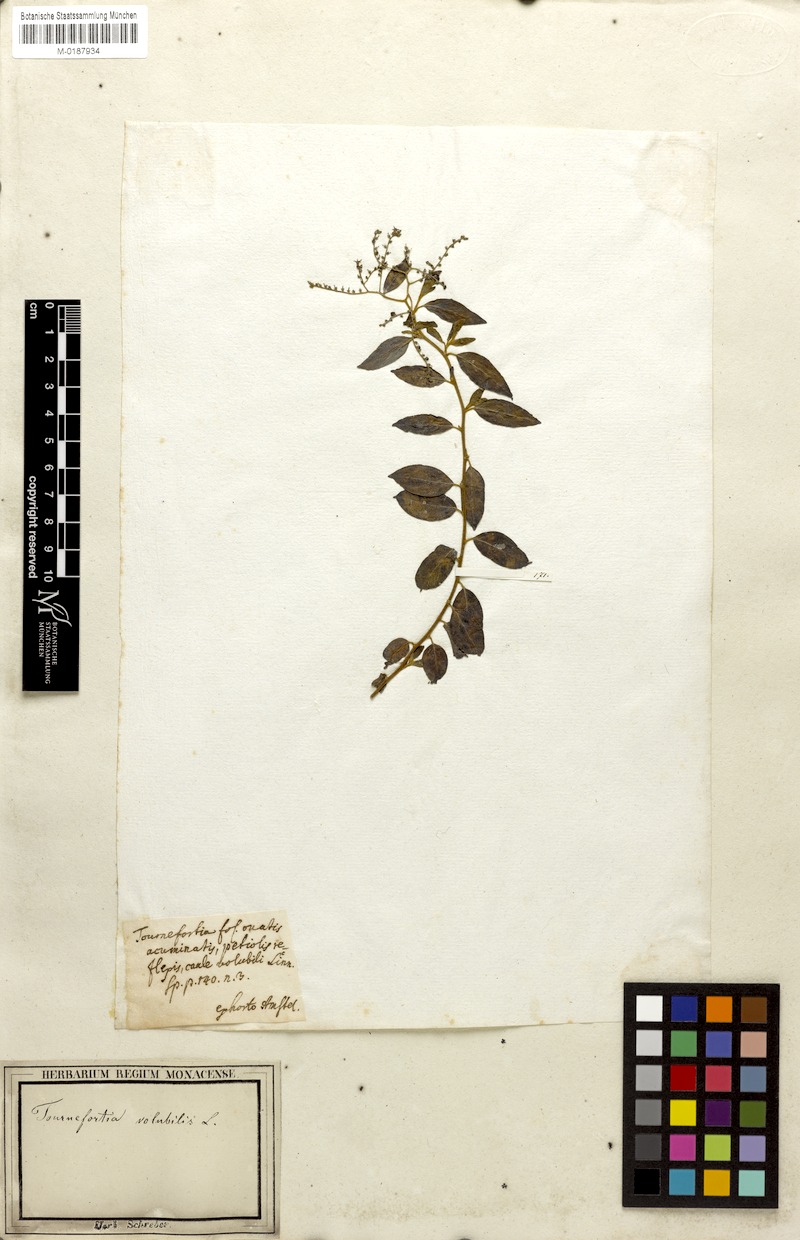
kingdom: Plantae
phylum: Tracheophyta
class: Magnoliopsida
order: Boraginales
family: Heliotropiaceae
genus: Myriopus
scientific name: Myriopus volubilis
